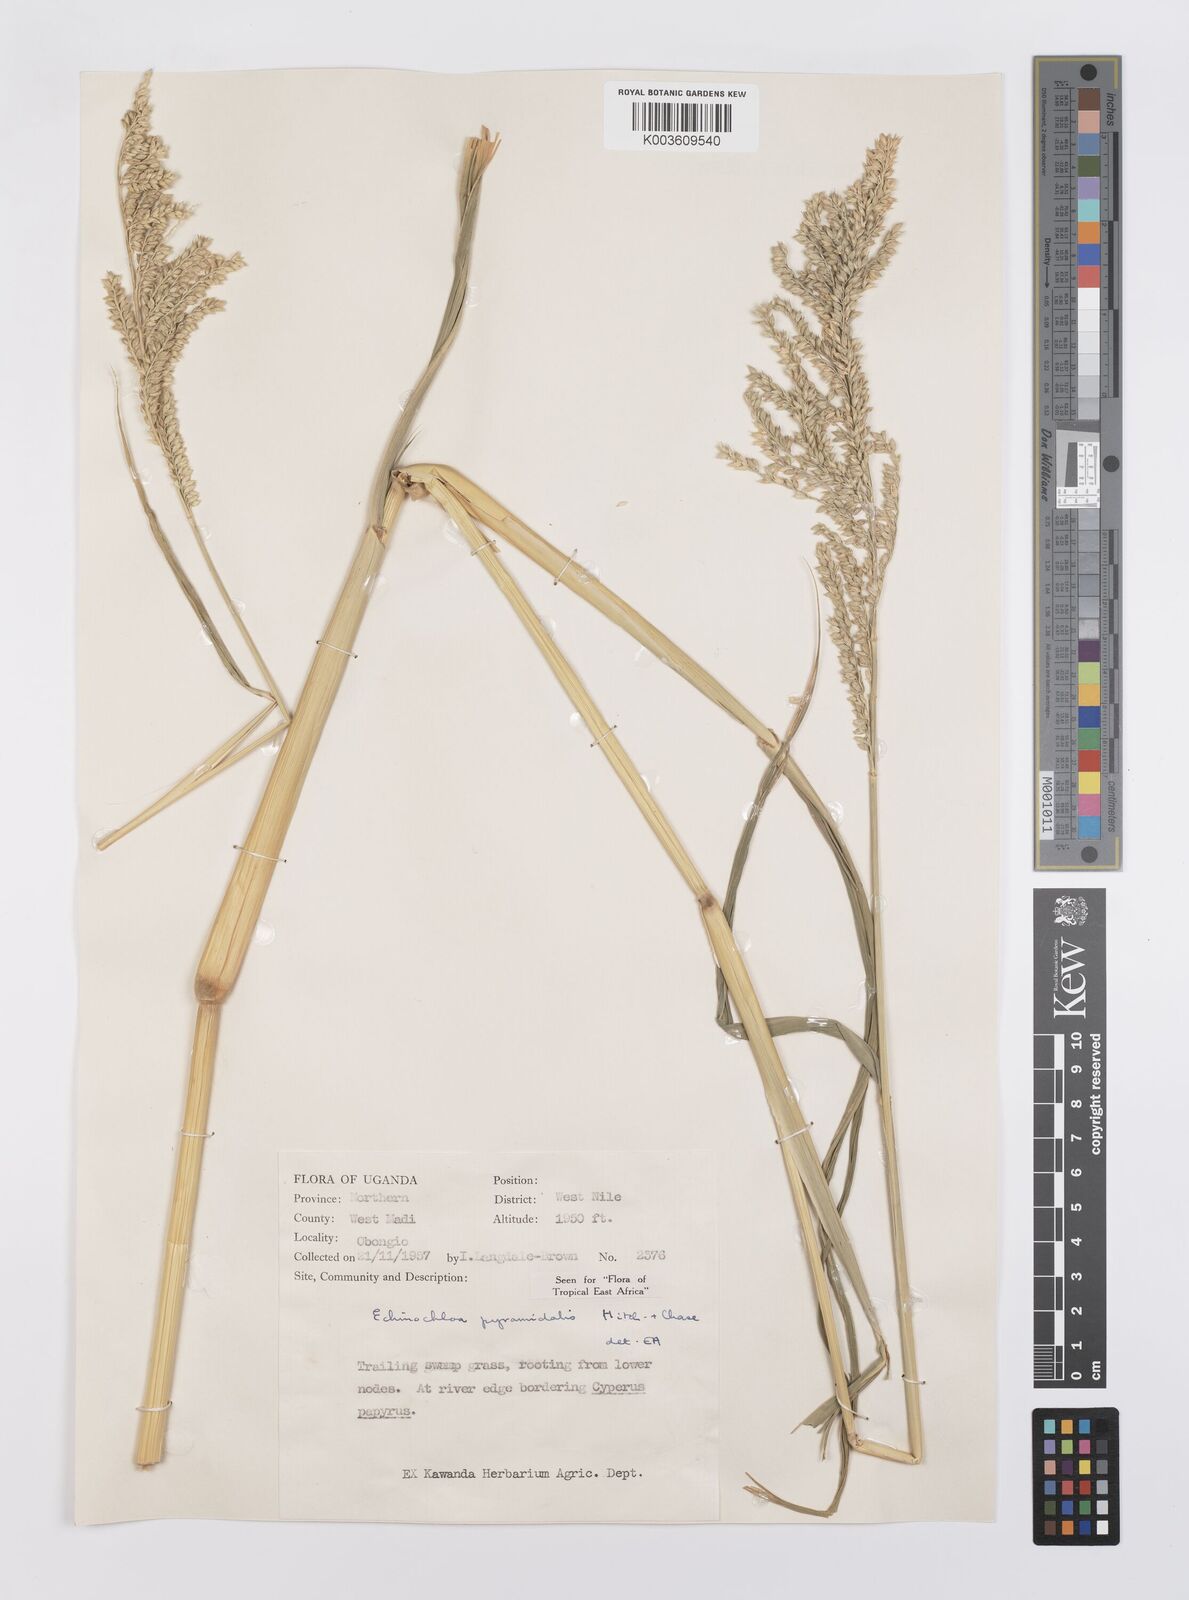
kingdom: Plantae
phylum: Tracheophyta
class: Liliopsida
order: Poales
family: Poaceae
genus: Echinochloa
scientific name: Echinochloa pyramidalis
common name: Antelope grass
